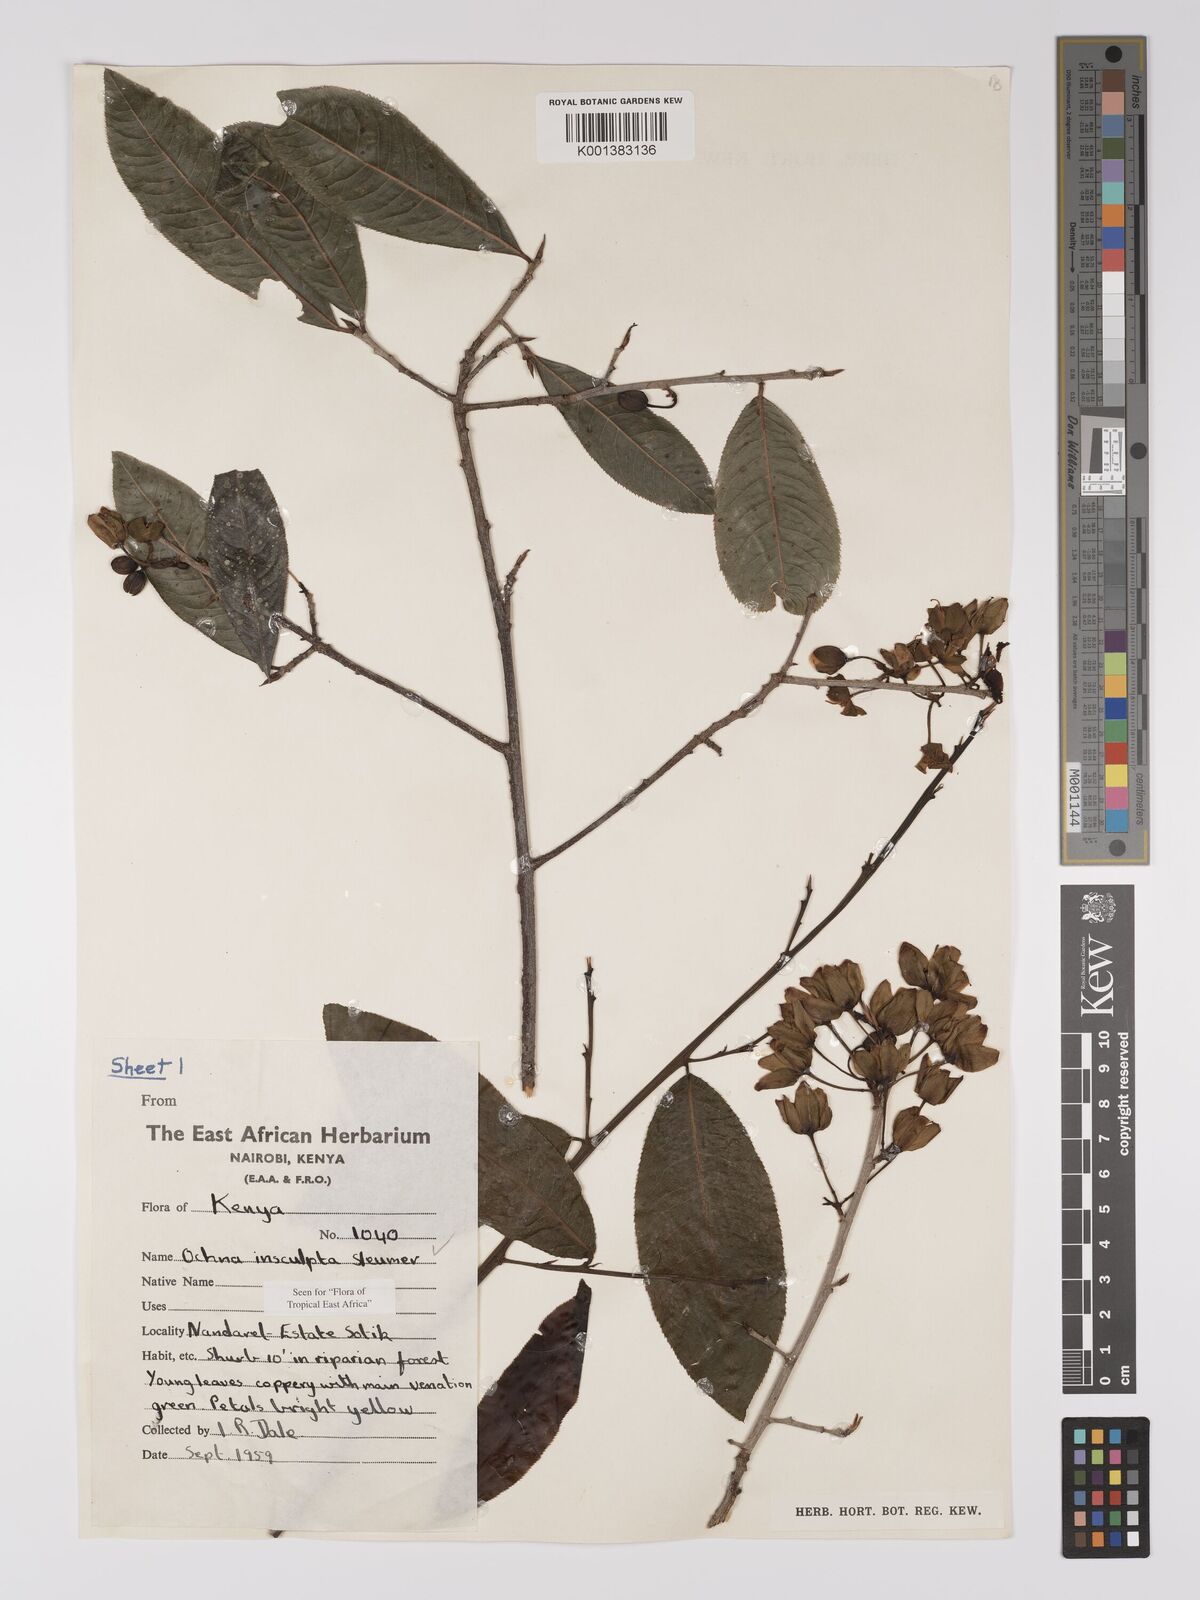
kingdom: Plantae
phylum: Tracheophyta
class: Magnoliopsida
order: Malpighiales
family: Ochnaceae
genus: Ochna
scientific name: Ochna insculpta
